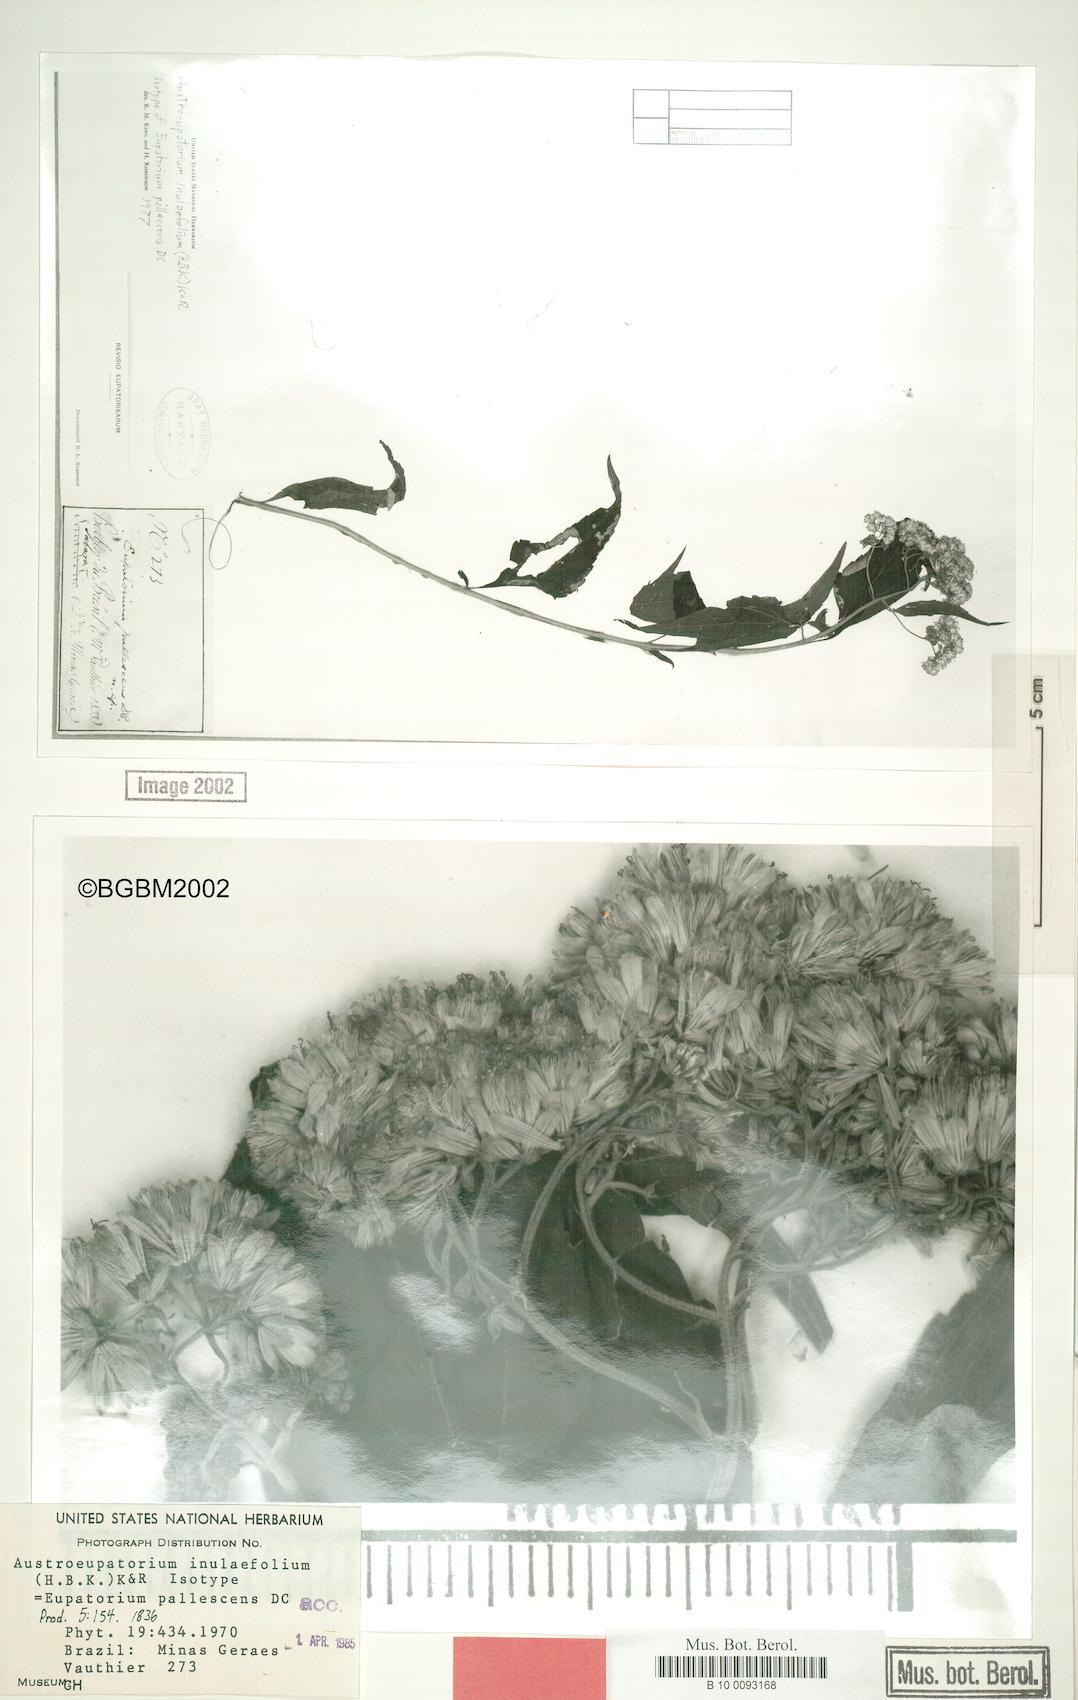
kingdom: Plantae
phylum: Tracheophyta
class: Magnoliopsida
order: Asterales
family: Asteraceae
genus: Austroeupatorium
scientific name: Austroeupatorium inulaefolium
